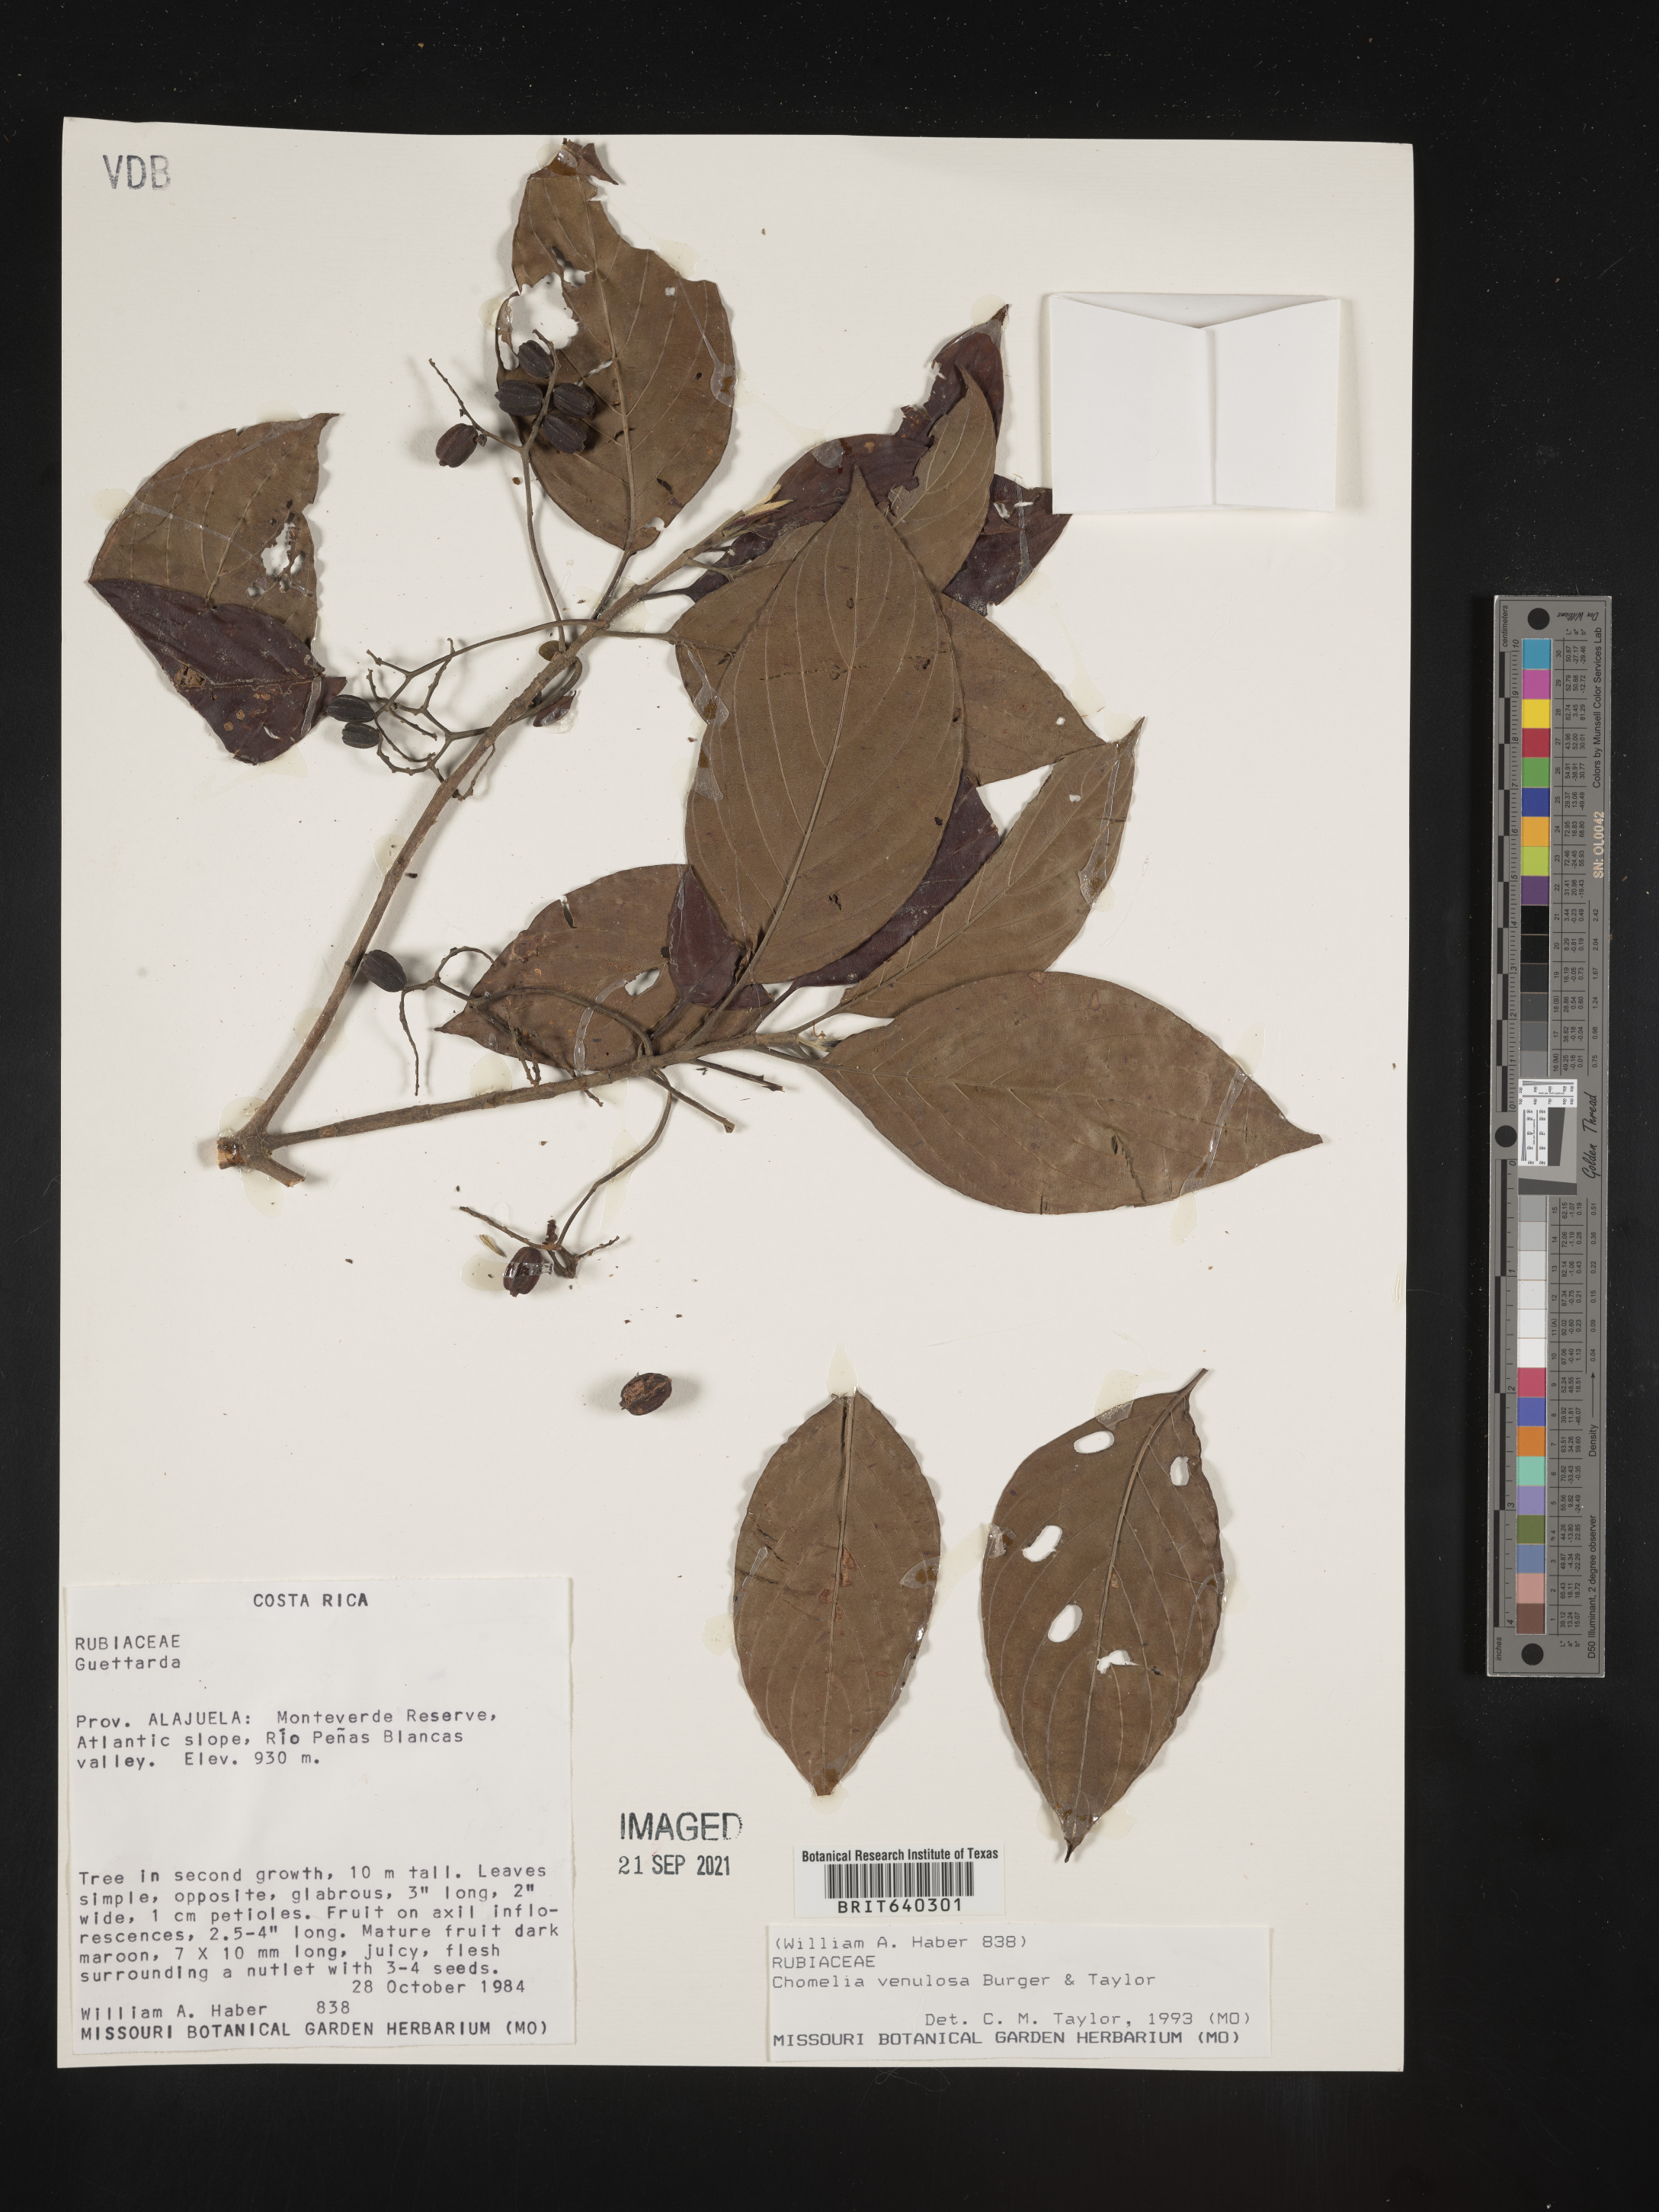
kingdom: Plantae
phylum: Tracheophyta
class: Magnoliopsida
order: Gentianales
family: Rubiaceae
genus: Chomelia
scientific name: Chomelia
